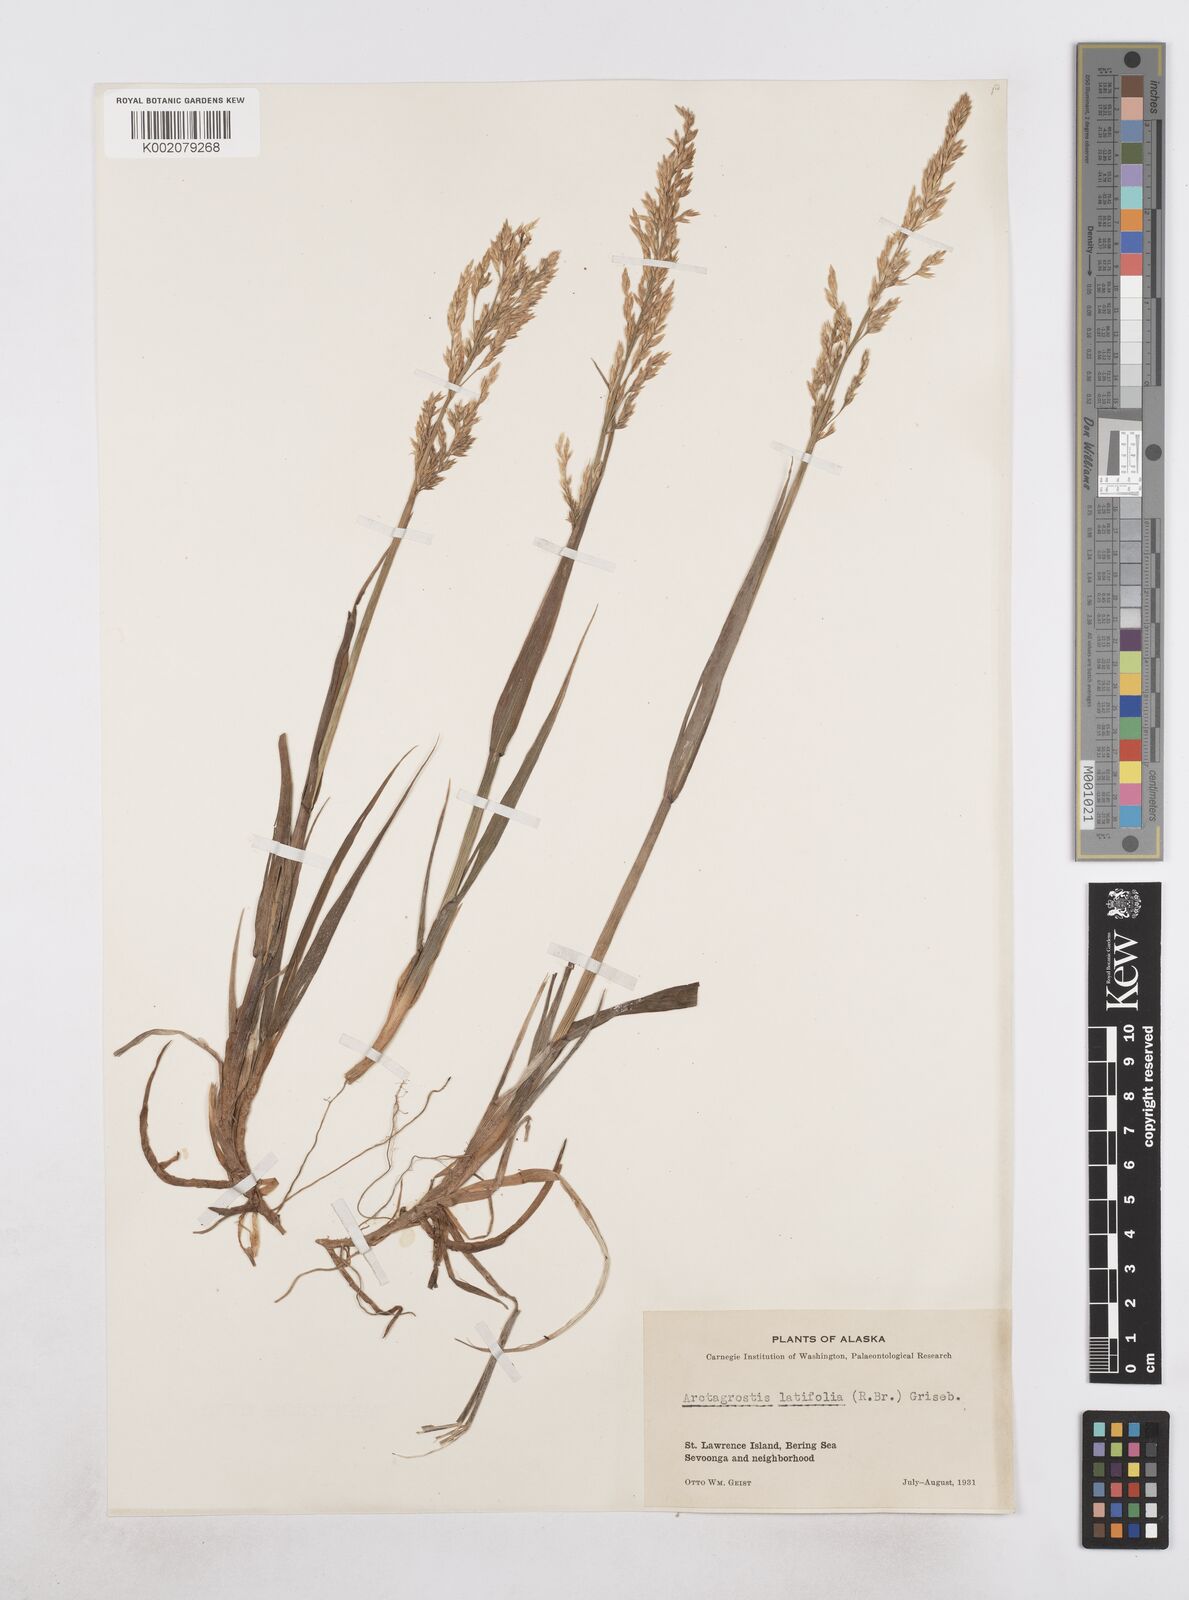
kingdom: Plantae
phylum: Tracheophyta
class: Liliopsida
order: Poales
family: Poaceae
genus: Arctagrostis
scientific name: Arctagrostis latifolia
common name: Arctic grass
